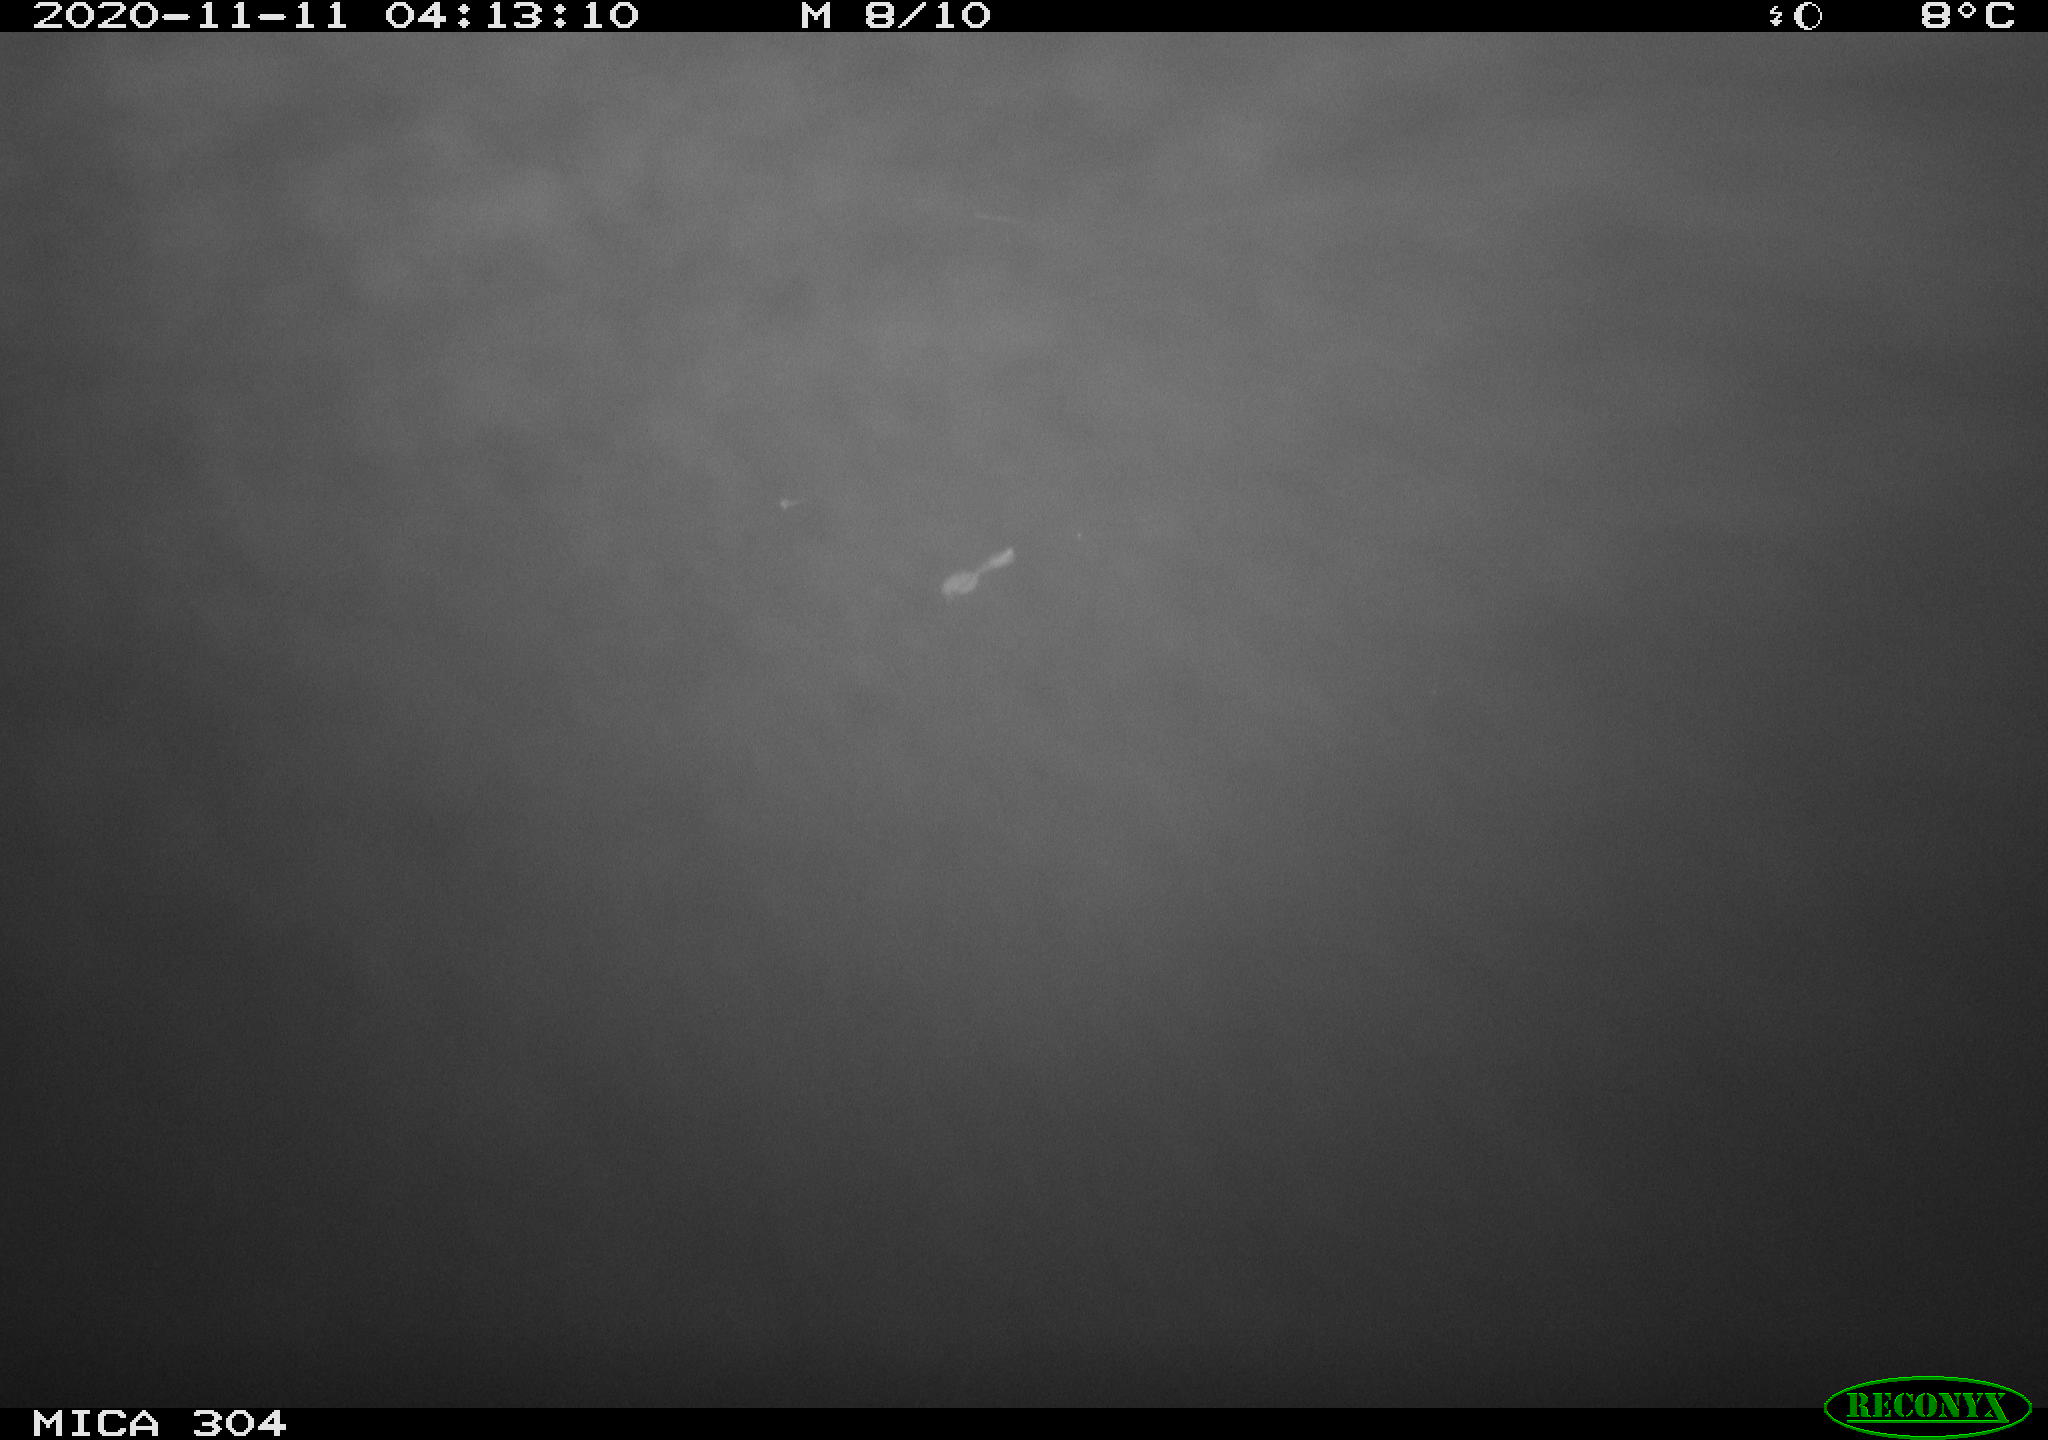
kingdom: Animalia
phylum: Chordata
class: Mammalia
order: Rodentia
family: Muridae
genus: Rattus
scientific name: Rattus norvegicus
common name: Brown rat
